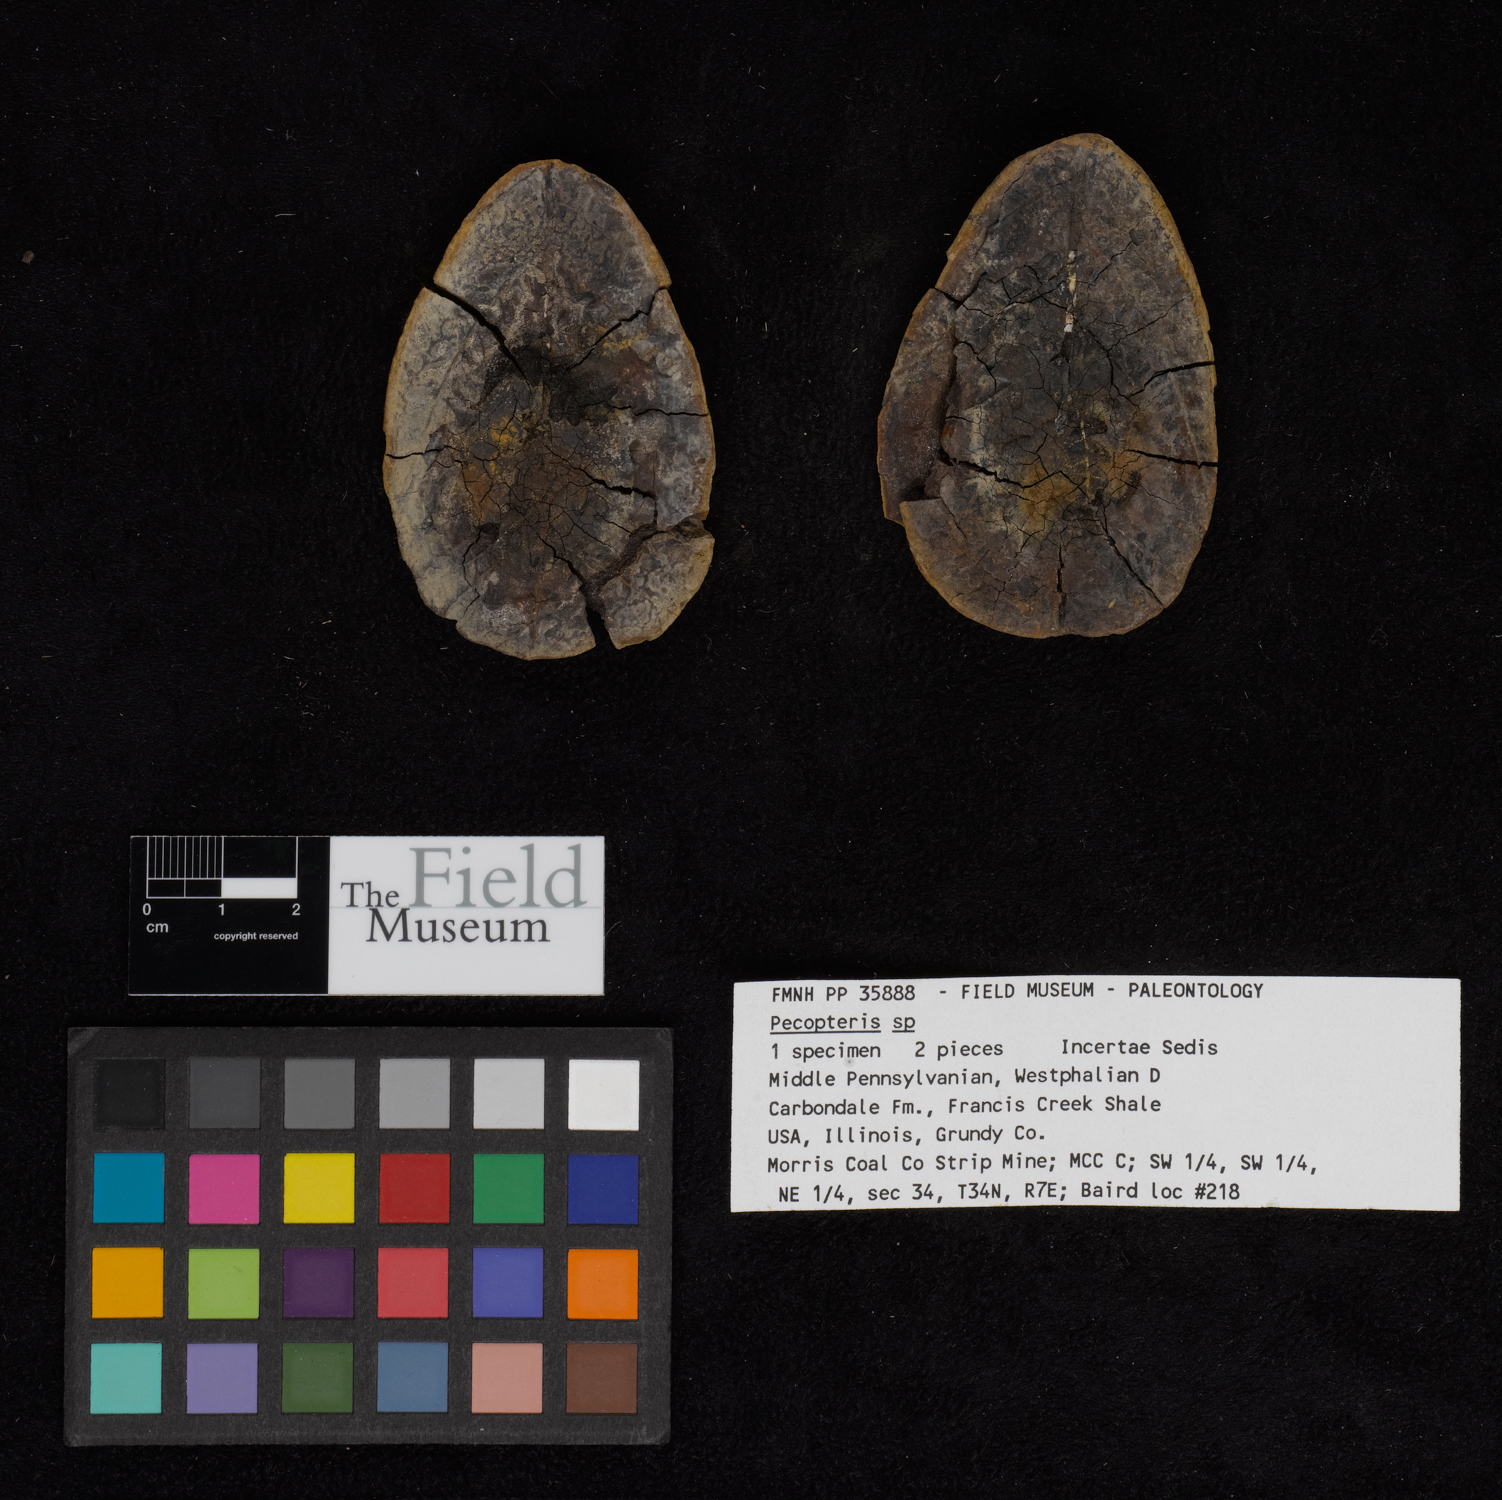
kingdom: Plantae
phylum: Tracheophyta
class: Polypodiopsida
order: Marattiales
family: Asterothecaceae
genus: Pecopteris
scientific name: Pecopteris
